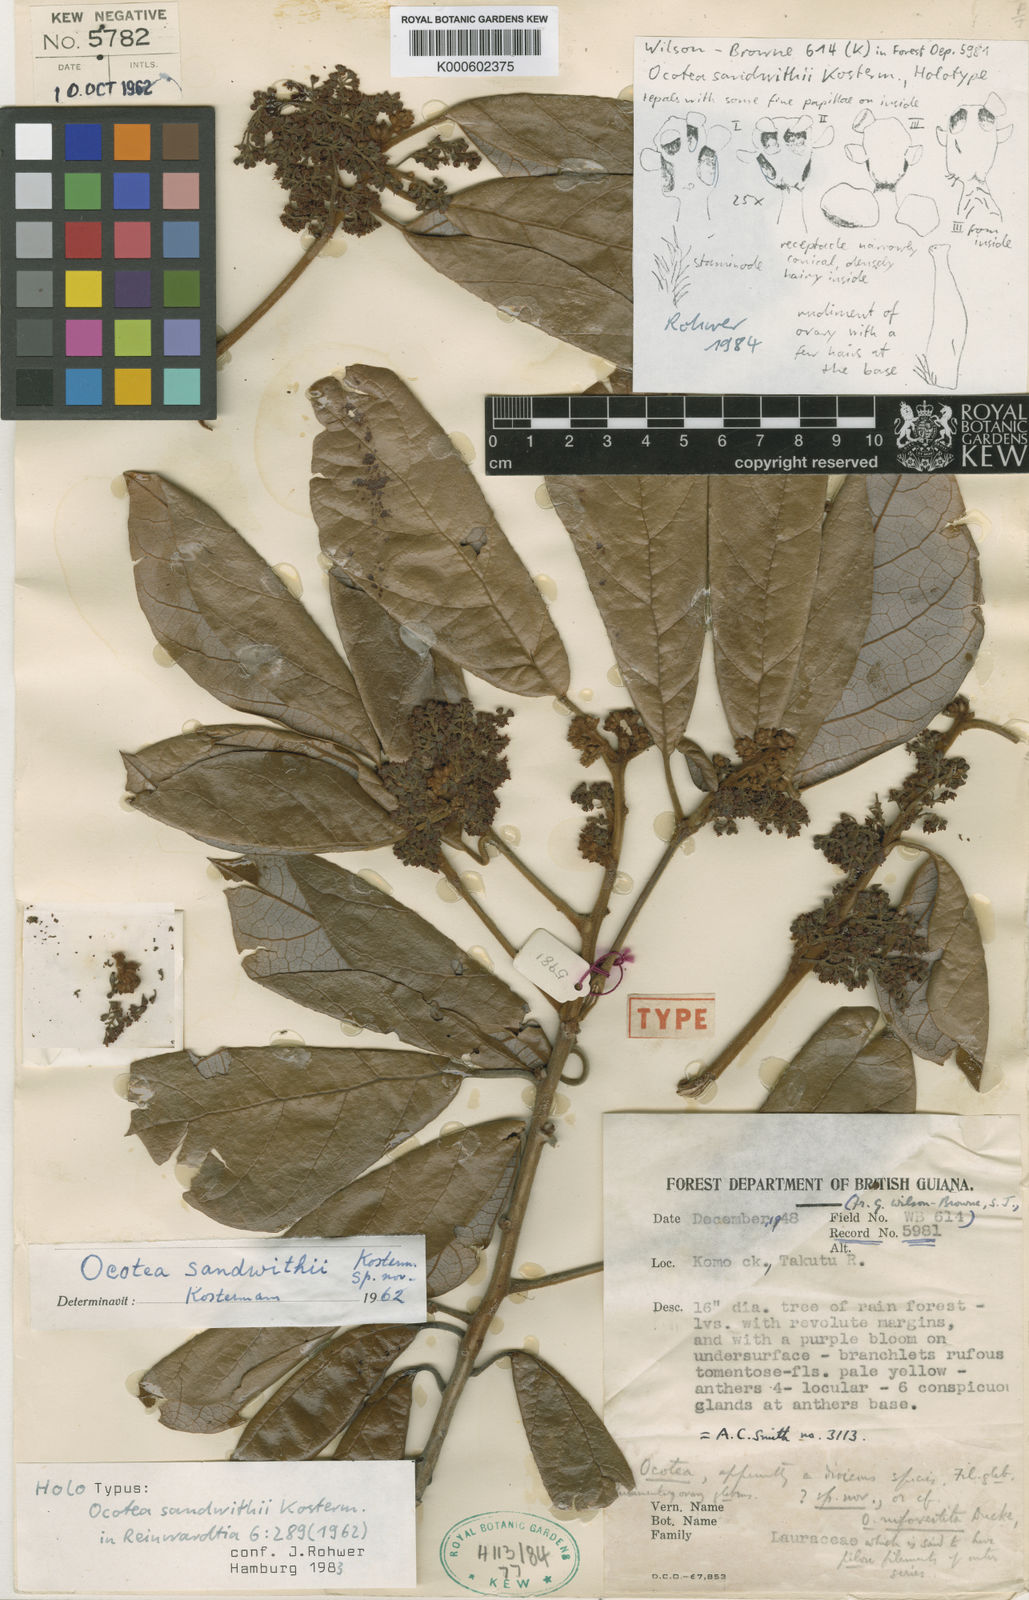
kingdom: Plantae
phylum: Tracheophyta
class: Magnoliopsida
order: Laurales
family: Lauraceae
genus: Ocotea
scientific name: Ocotea sandwithii
